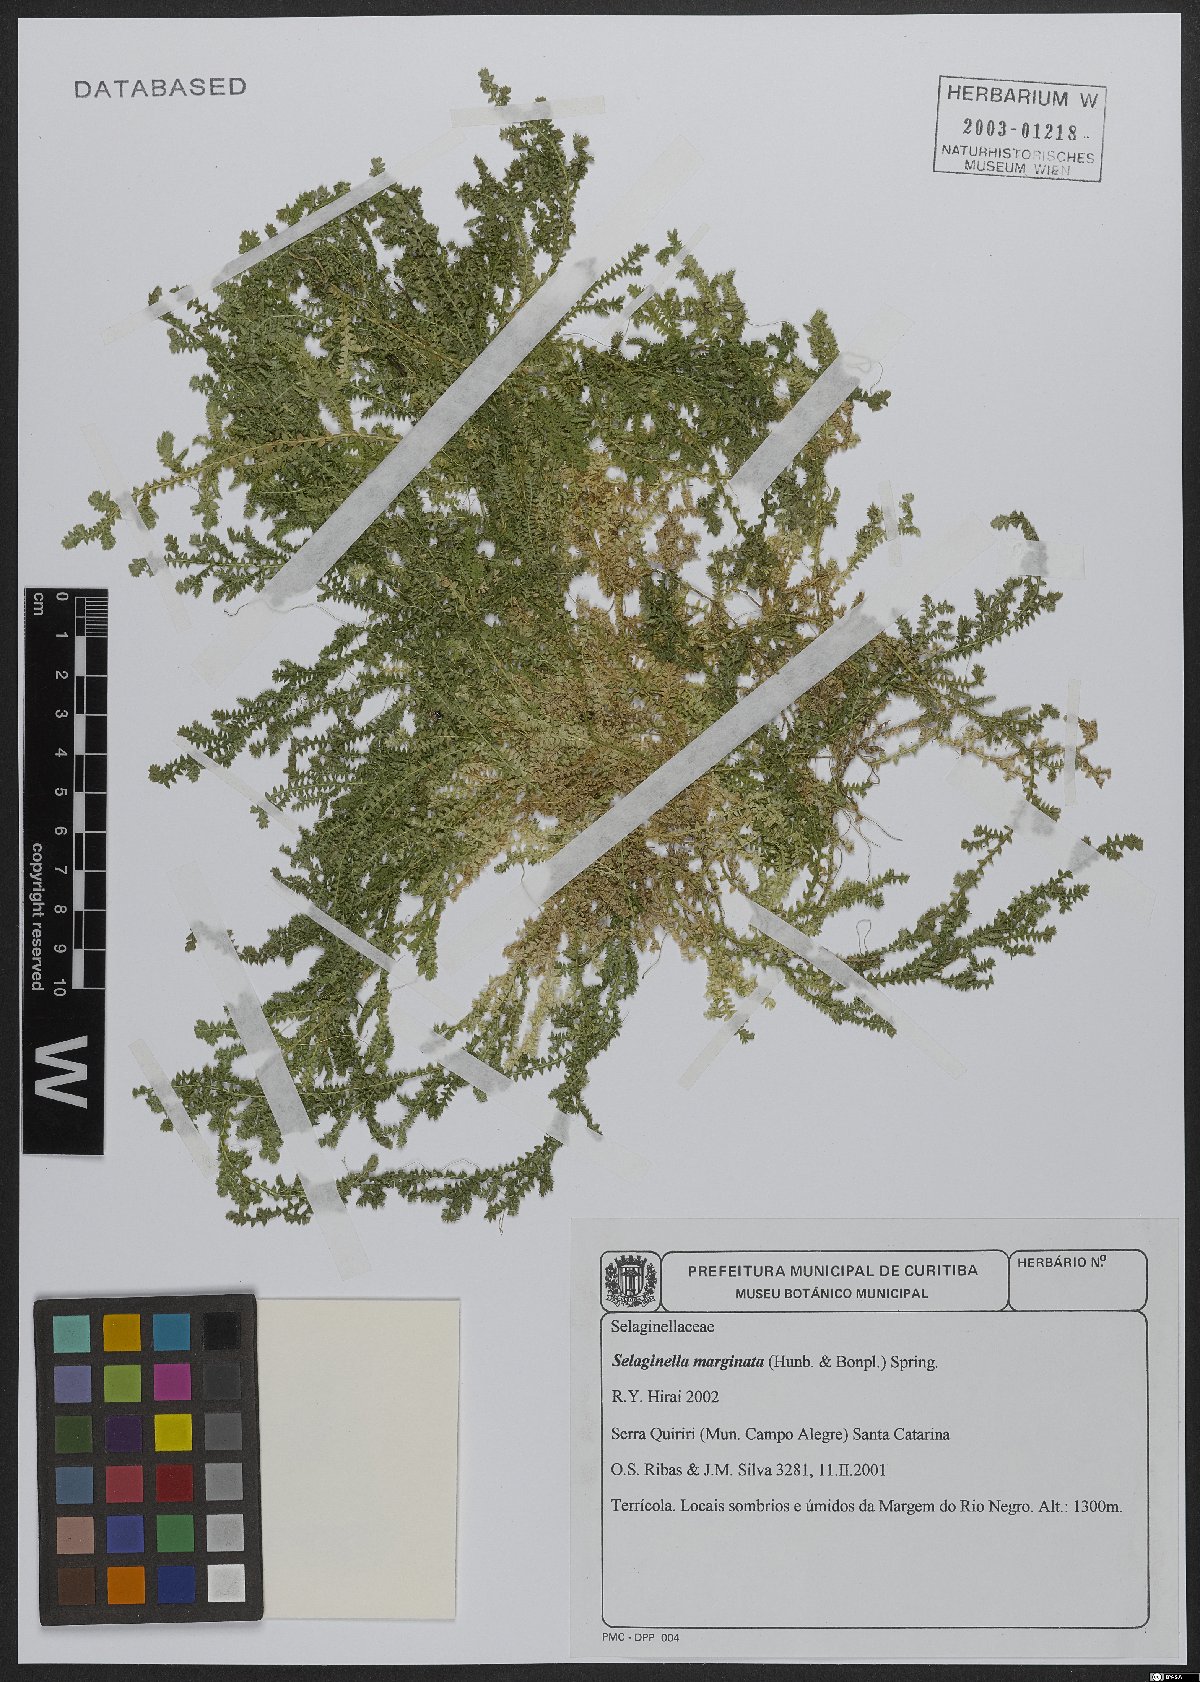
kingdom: Plantae
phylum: Tracheophyta
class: Lycopodiopsida
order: Selaginellales
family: Selaginellaceae
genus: Selaginella
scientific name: Selaginella marginata
